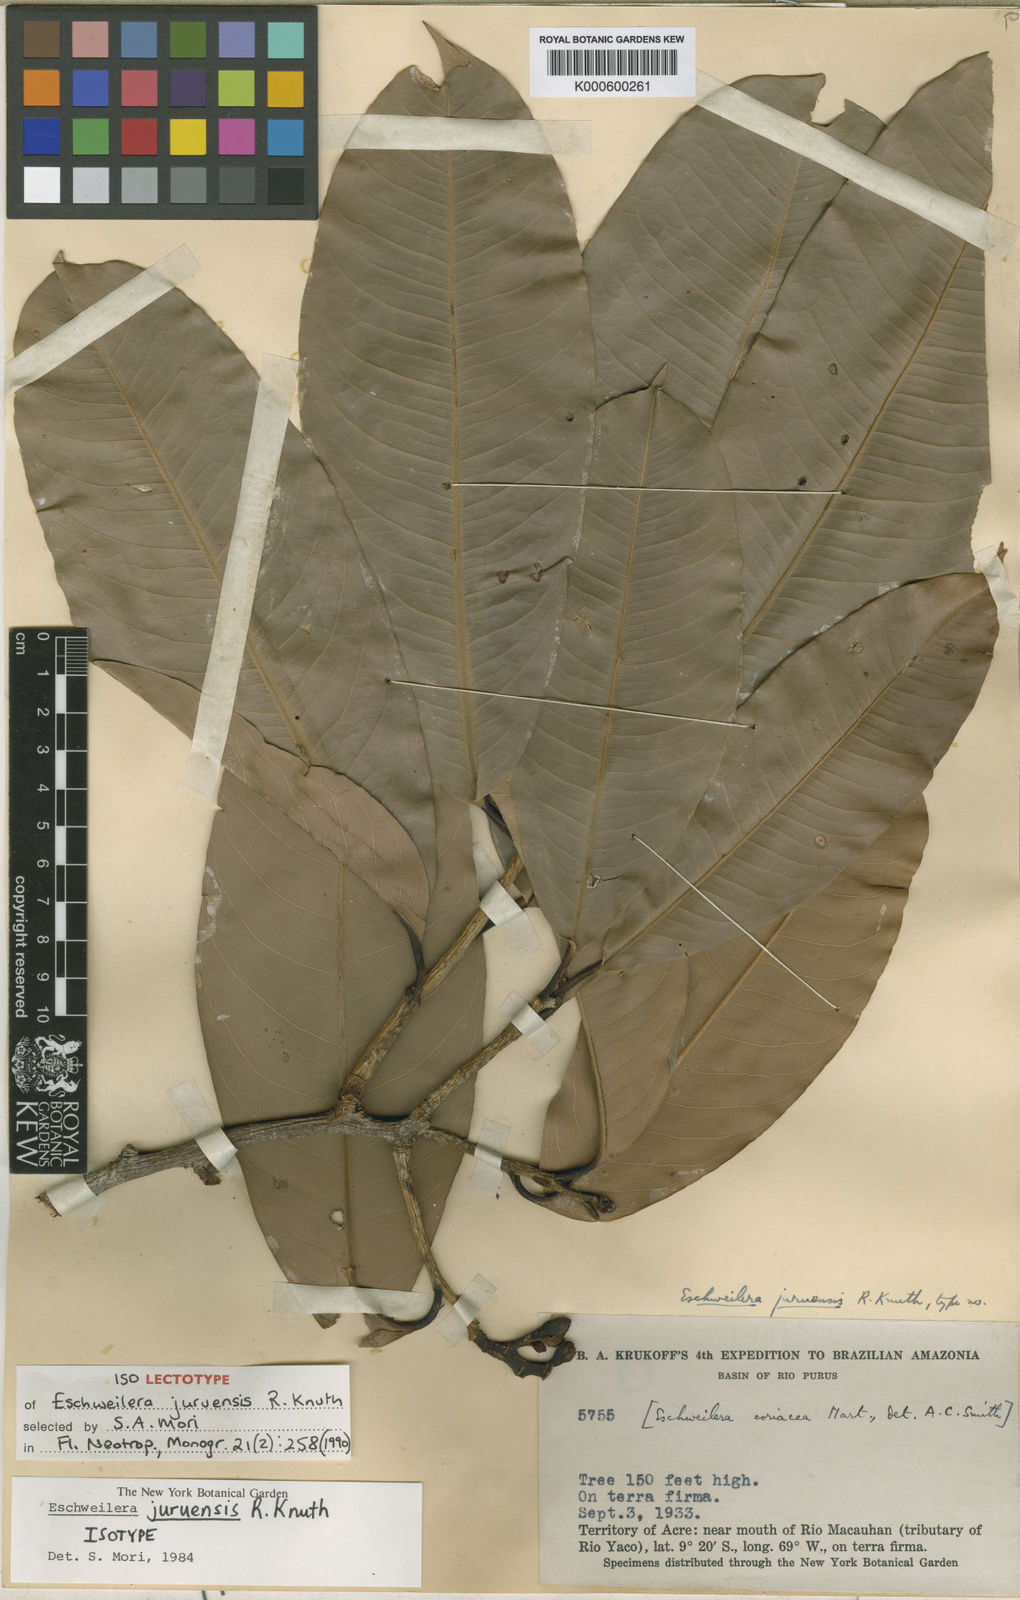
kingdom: Plantae
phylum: Tracheophyta
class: Magnoliopsida
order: Ericales
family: Lecythidaceae
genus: Eschweilera
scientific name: Eschweilera juruensis
